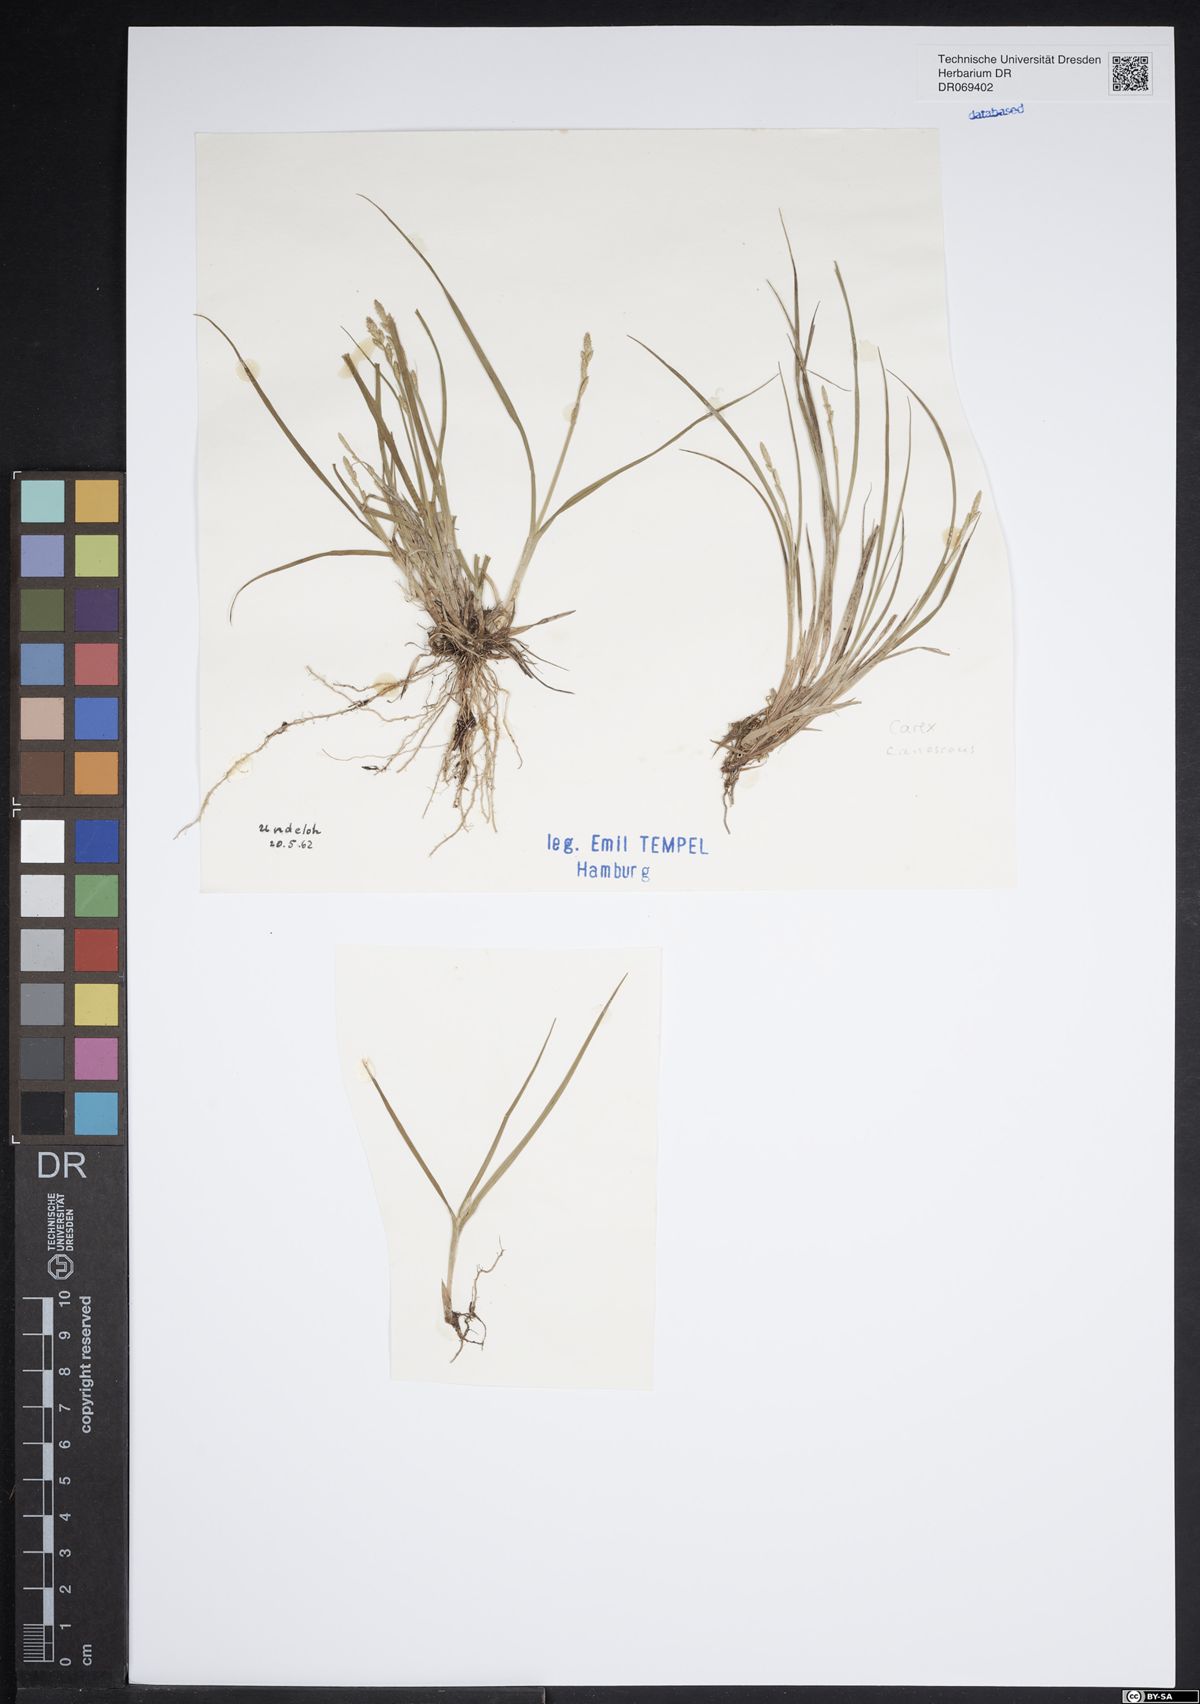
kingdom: Plantae
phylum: Tracheophyta
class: Liliopsida
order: Poales
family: Cyperaceae
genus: Carex
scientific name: Carex lasiocarpa
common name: Slender sedge
